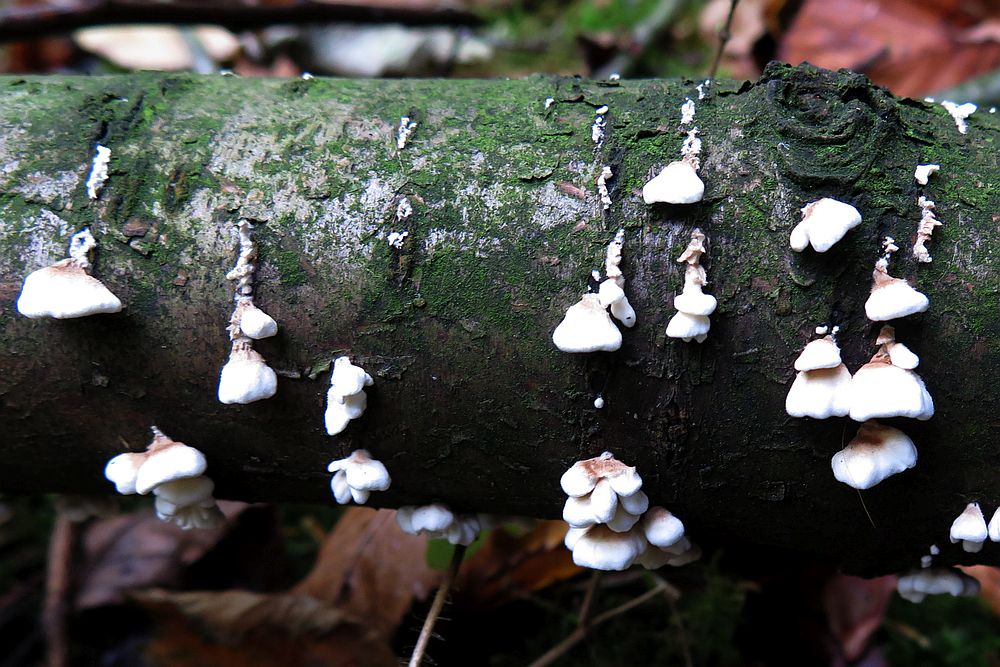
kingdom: Fungi
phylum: Basidiomycota
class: Agaricomycetes
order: Amylocorticiales
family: Amylocorticiaceae
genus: Plicaturopsis
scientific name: Plicaturopsis crispa
